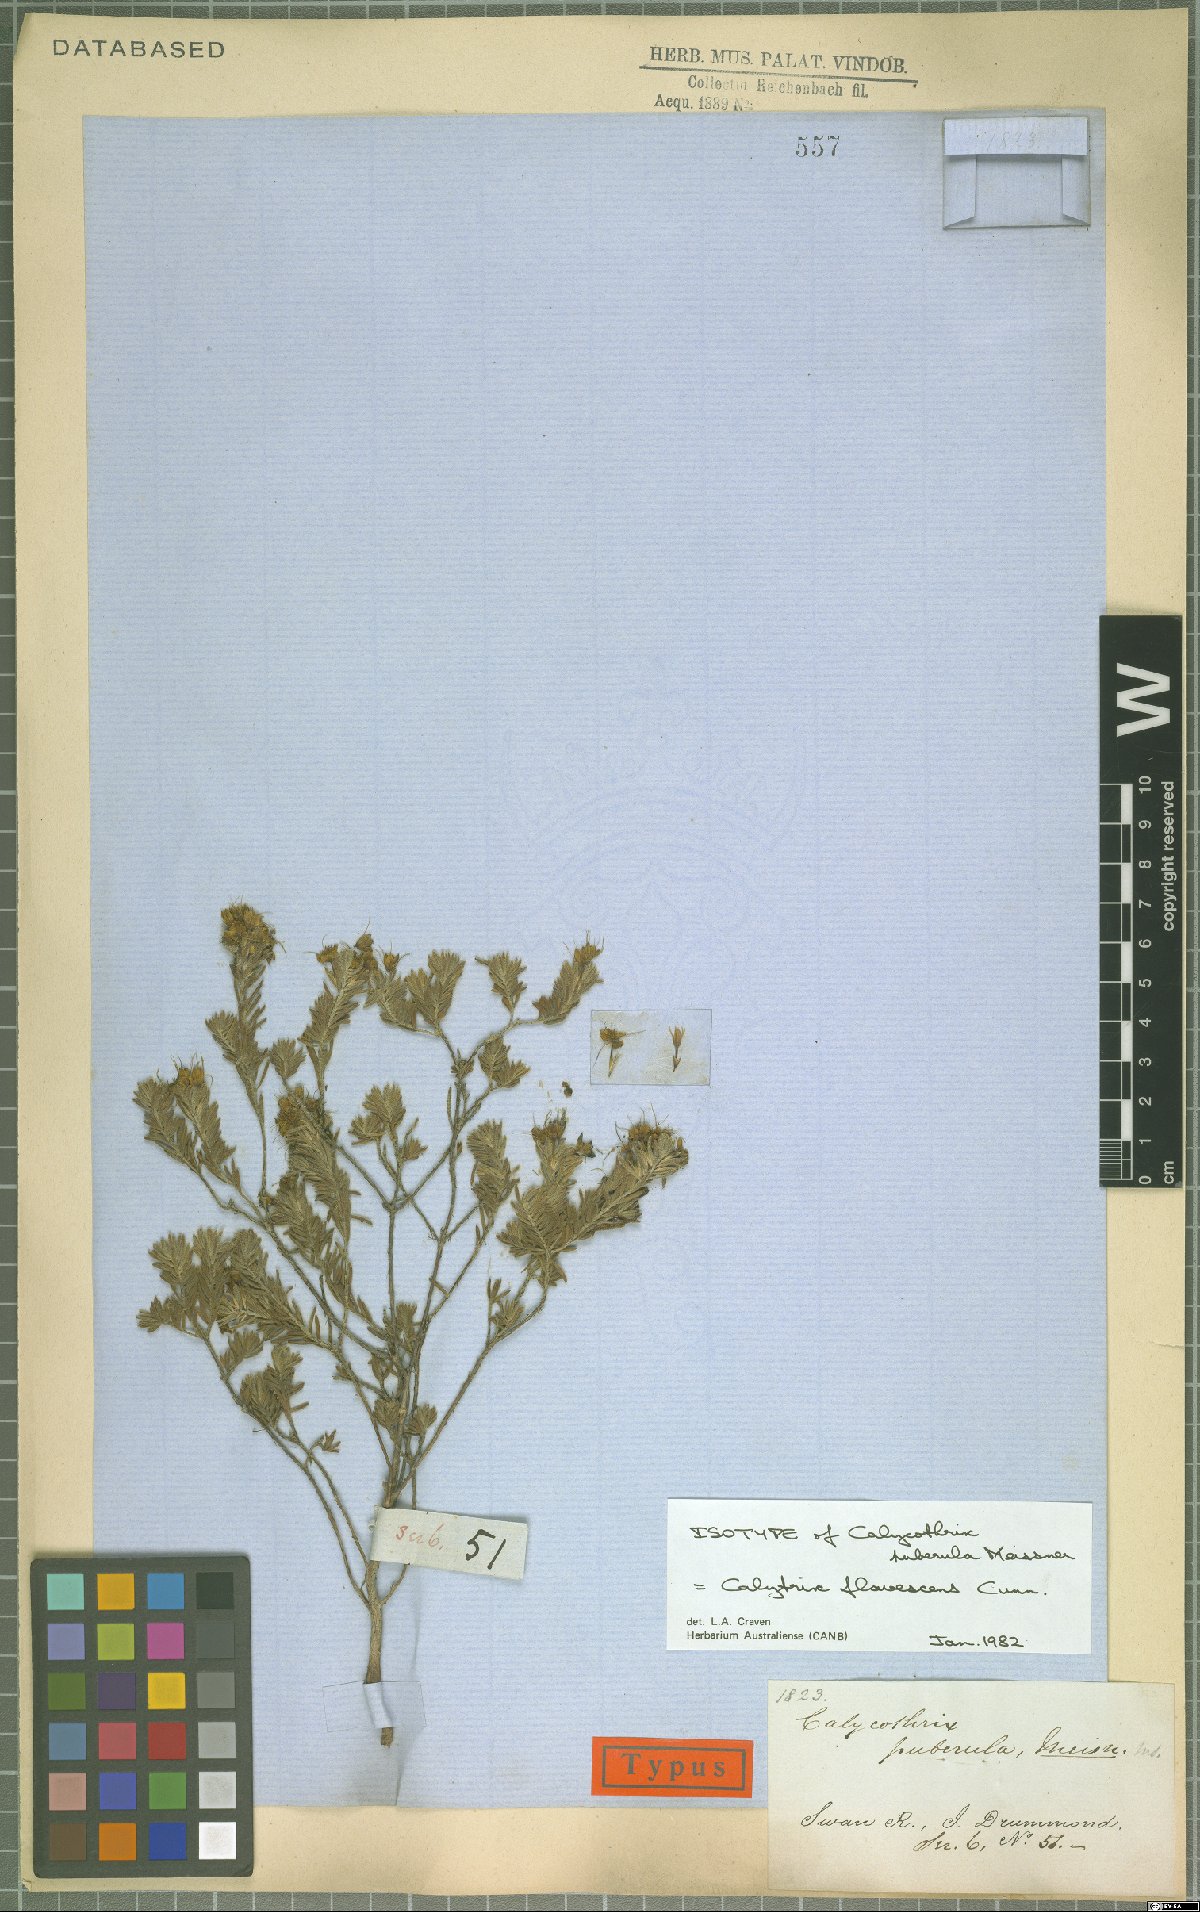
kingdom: Plantae
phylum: Tracheophyta
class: Magnoliopsida
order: Myrtales
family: Myrtaceae
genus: Calytrix
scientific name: Calytrix flavescens
